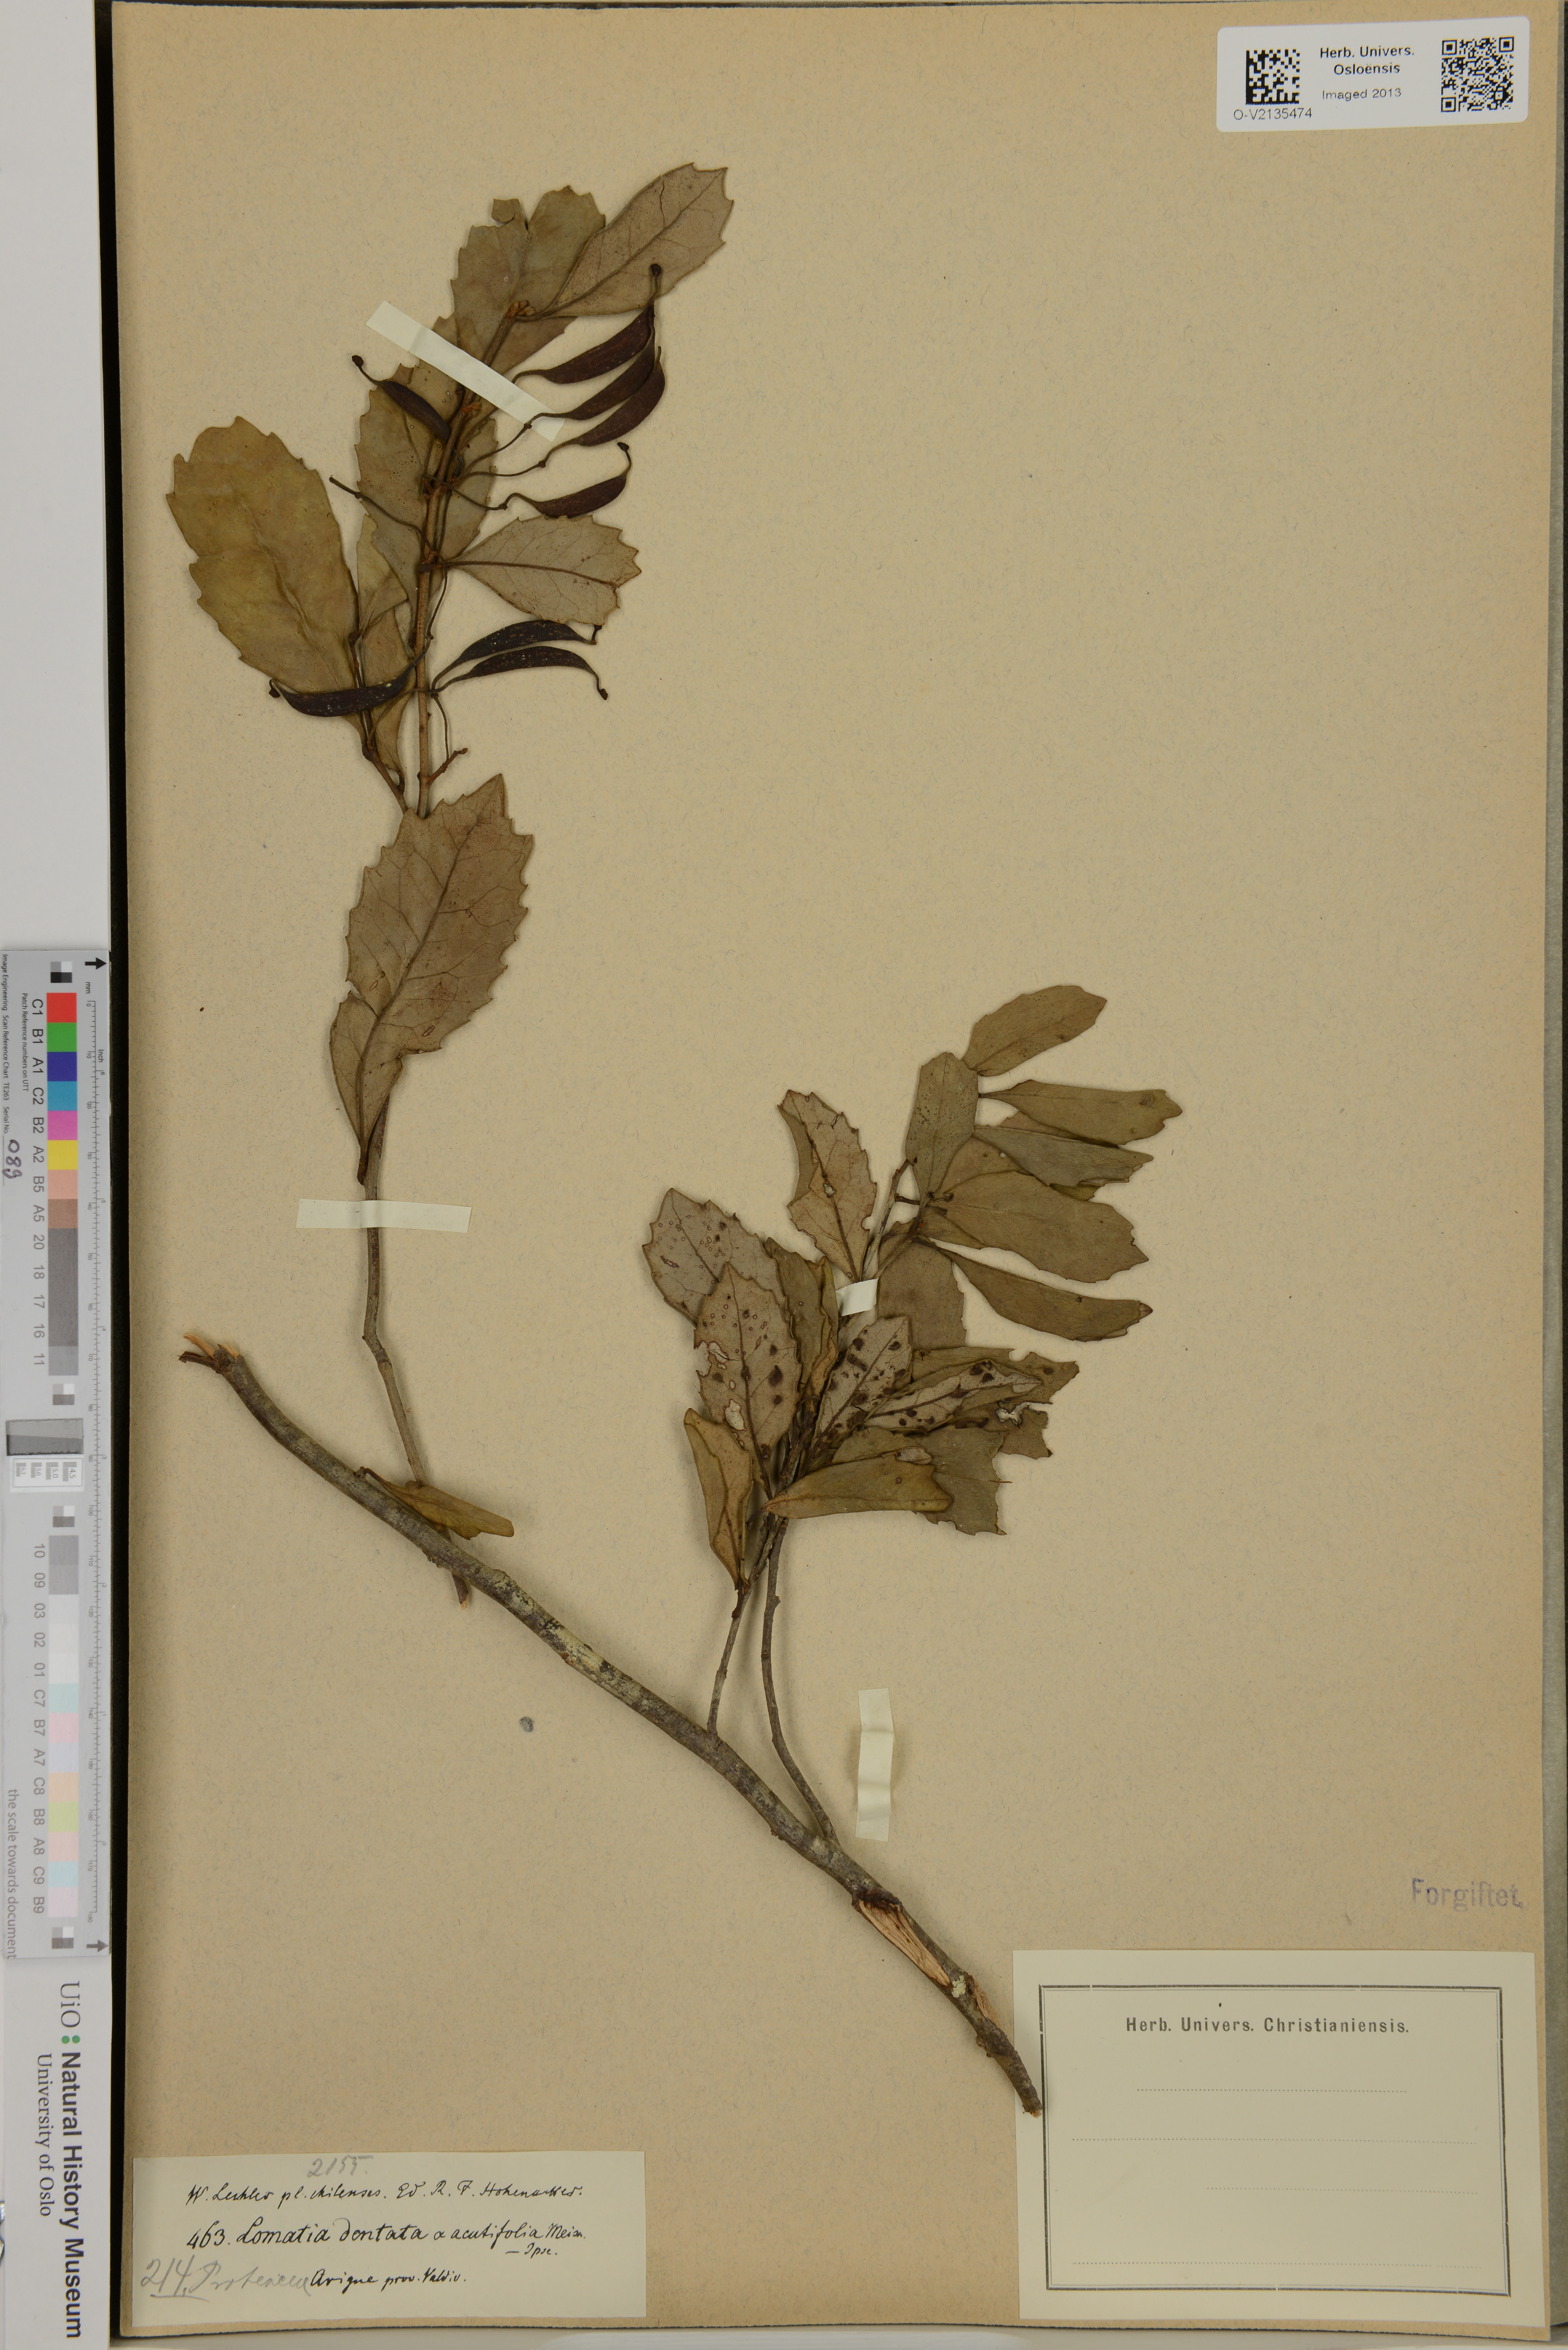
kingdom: Plantae
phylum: Tracheophyta
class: Magnoliopsida
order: Proteales
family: Proteaceae
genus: Lomatia
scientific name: Lomatia dentata
